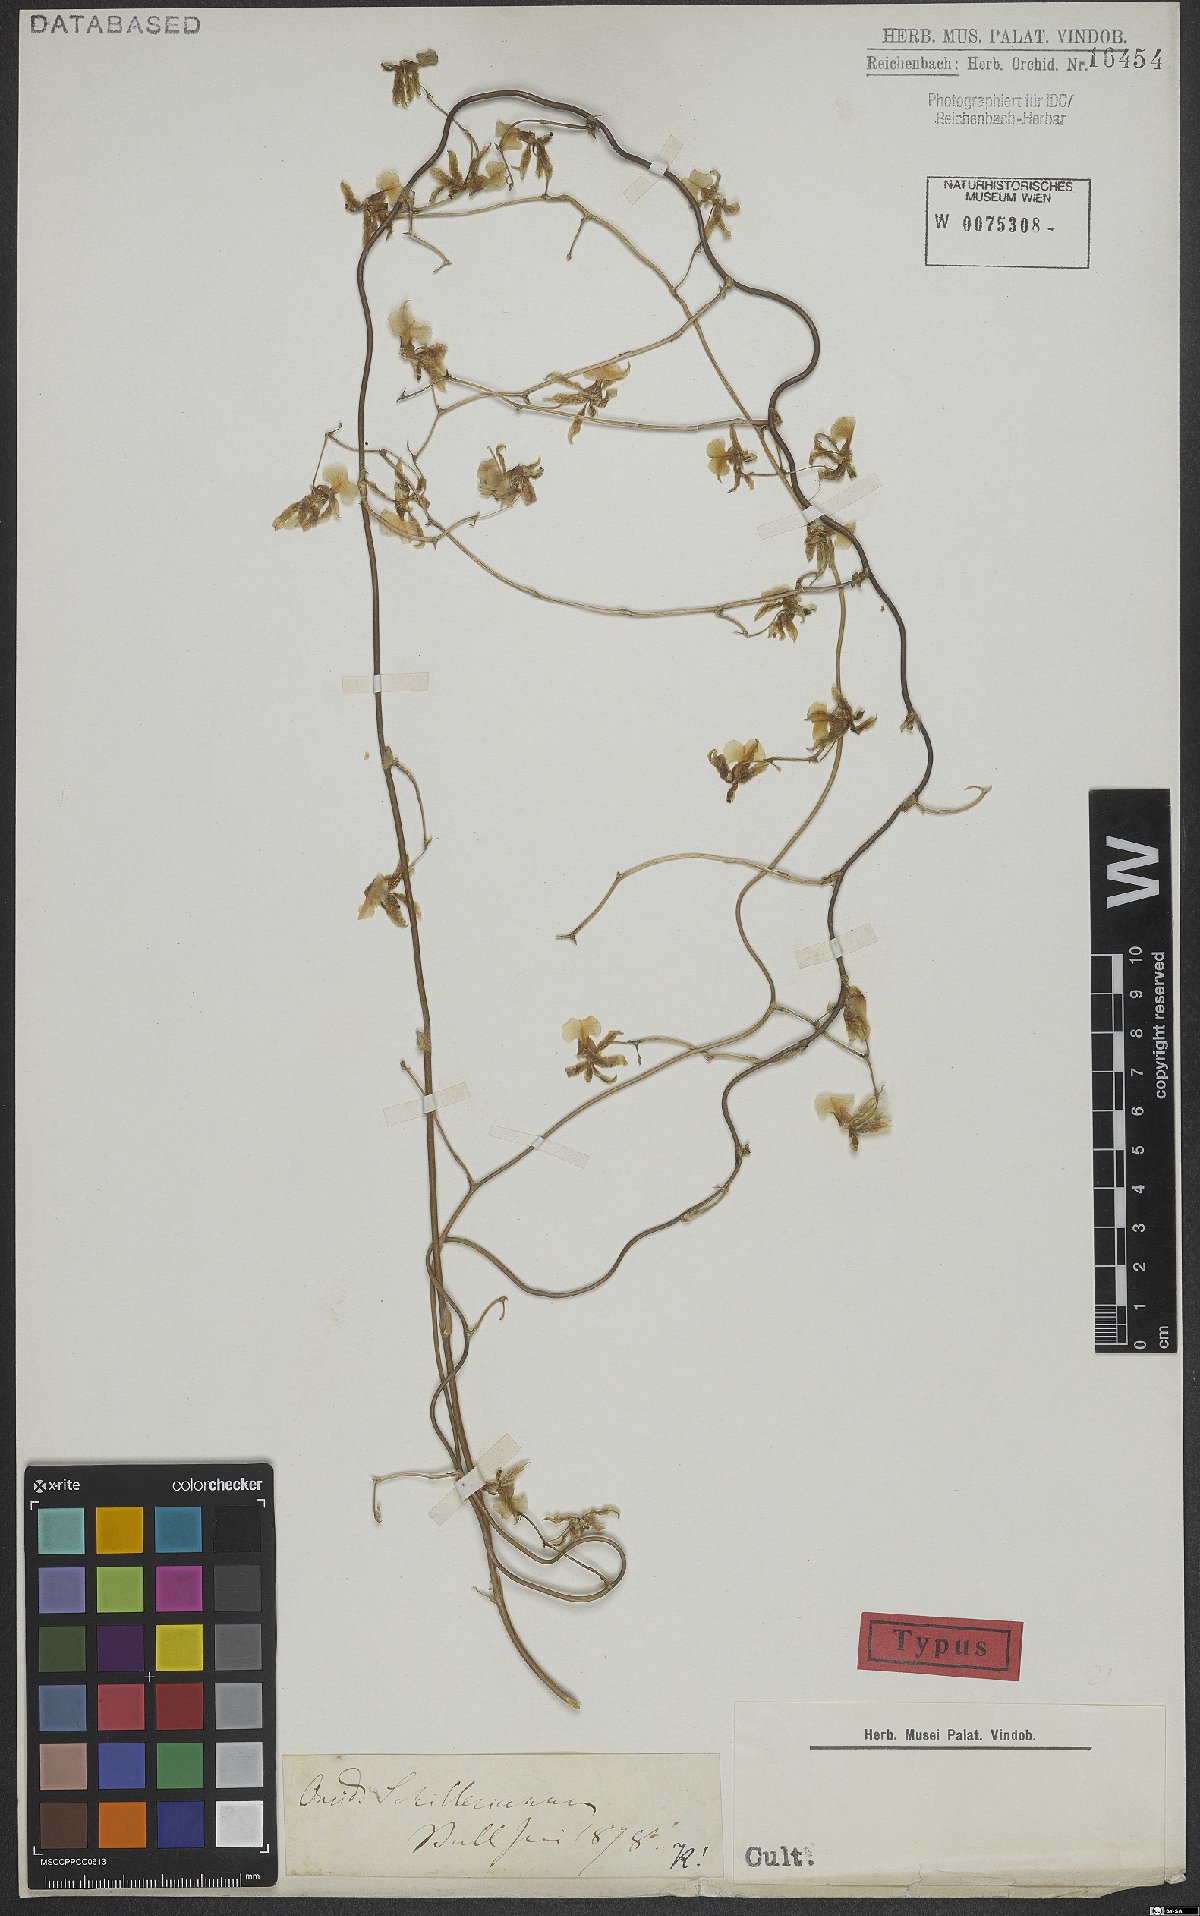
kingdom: Plantae
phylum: Tracheophyta
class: Liliopsida
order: Asparagales
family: Orchidaceae
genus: Oncidium
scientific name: Oncidium schillerianum
